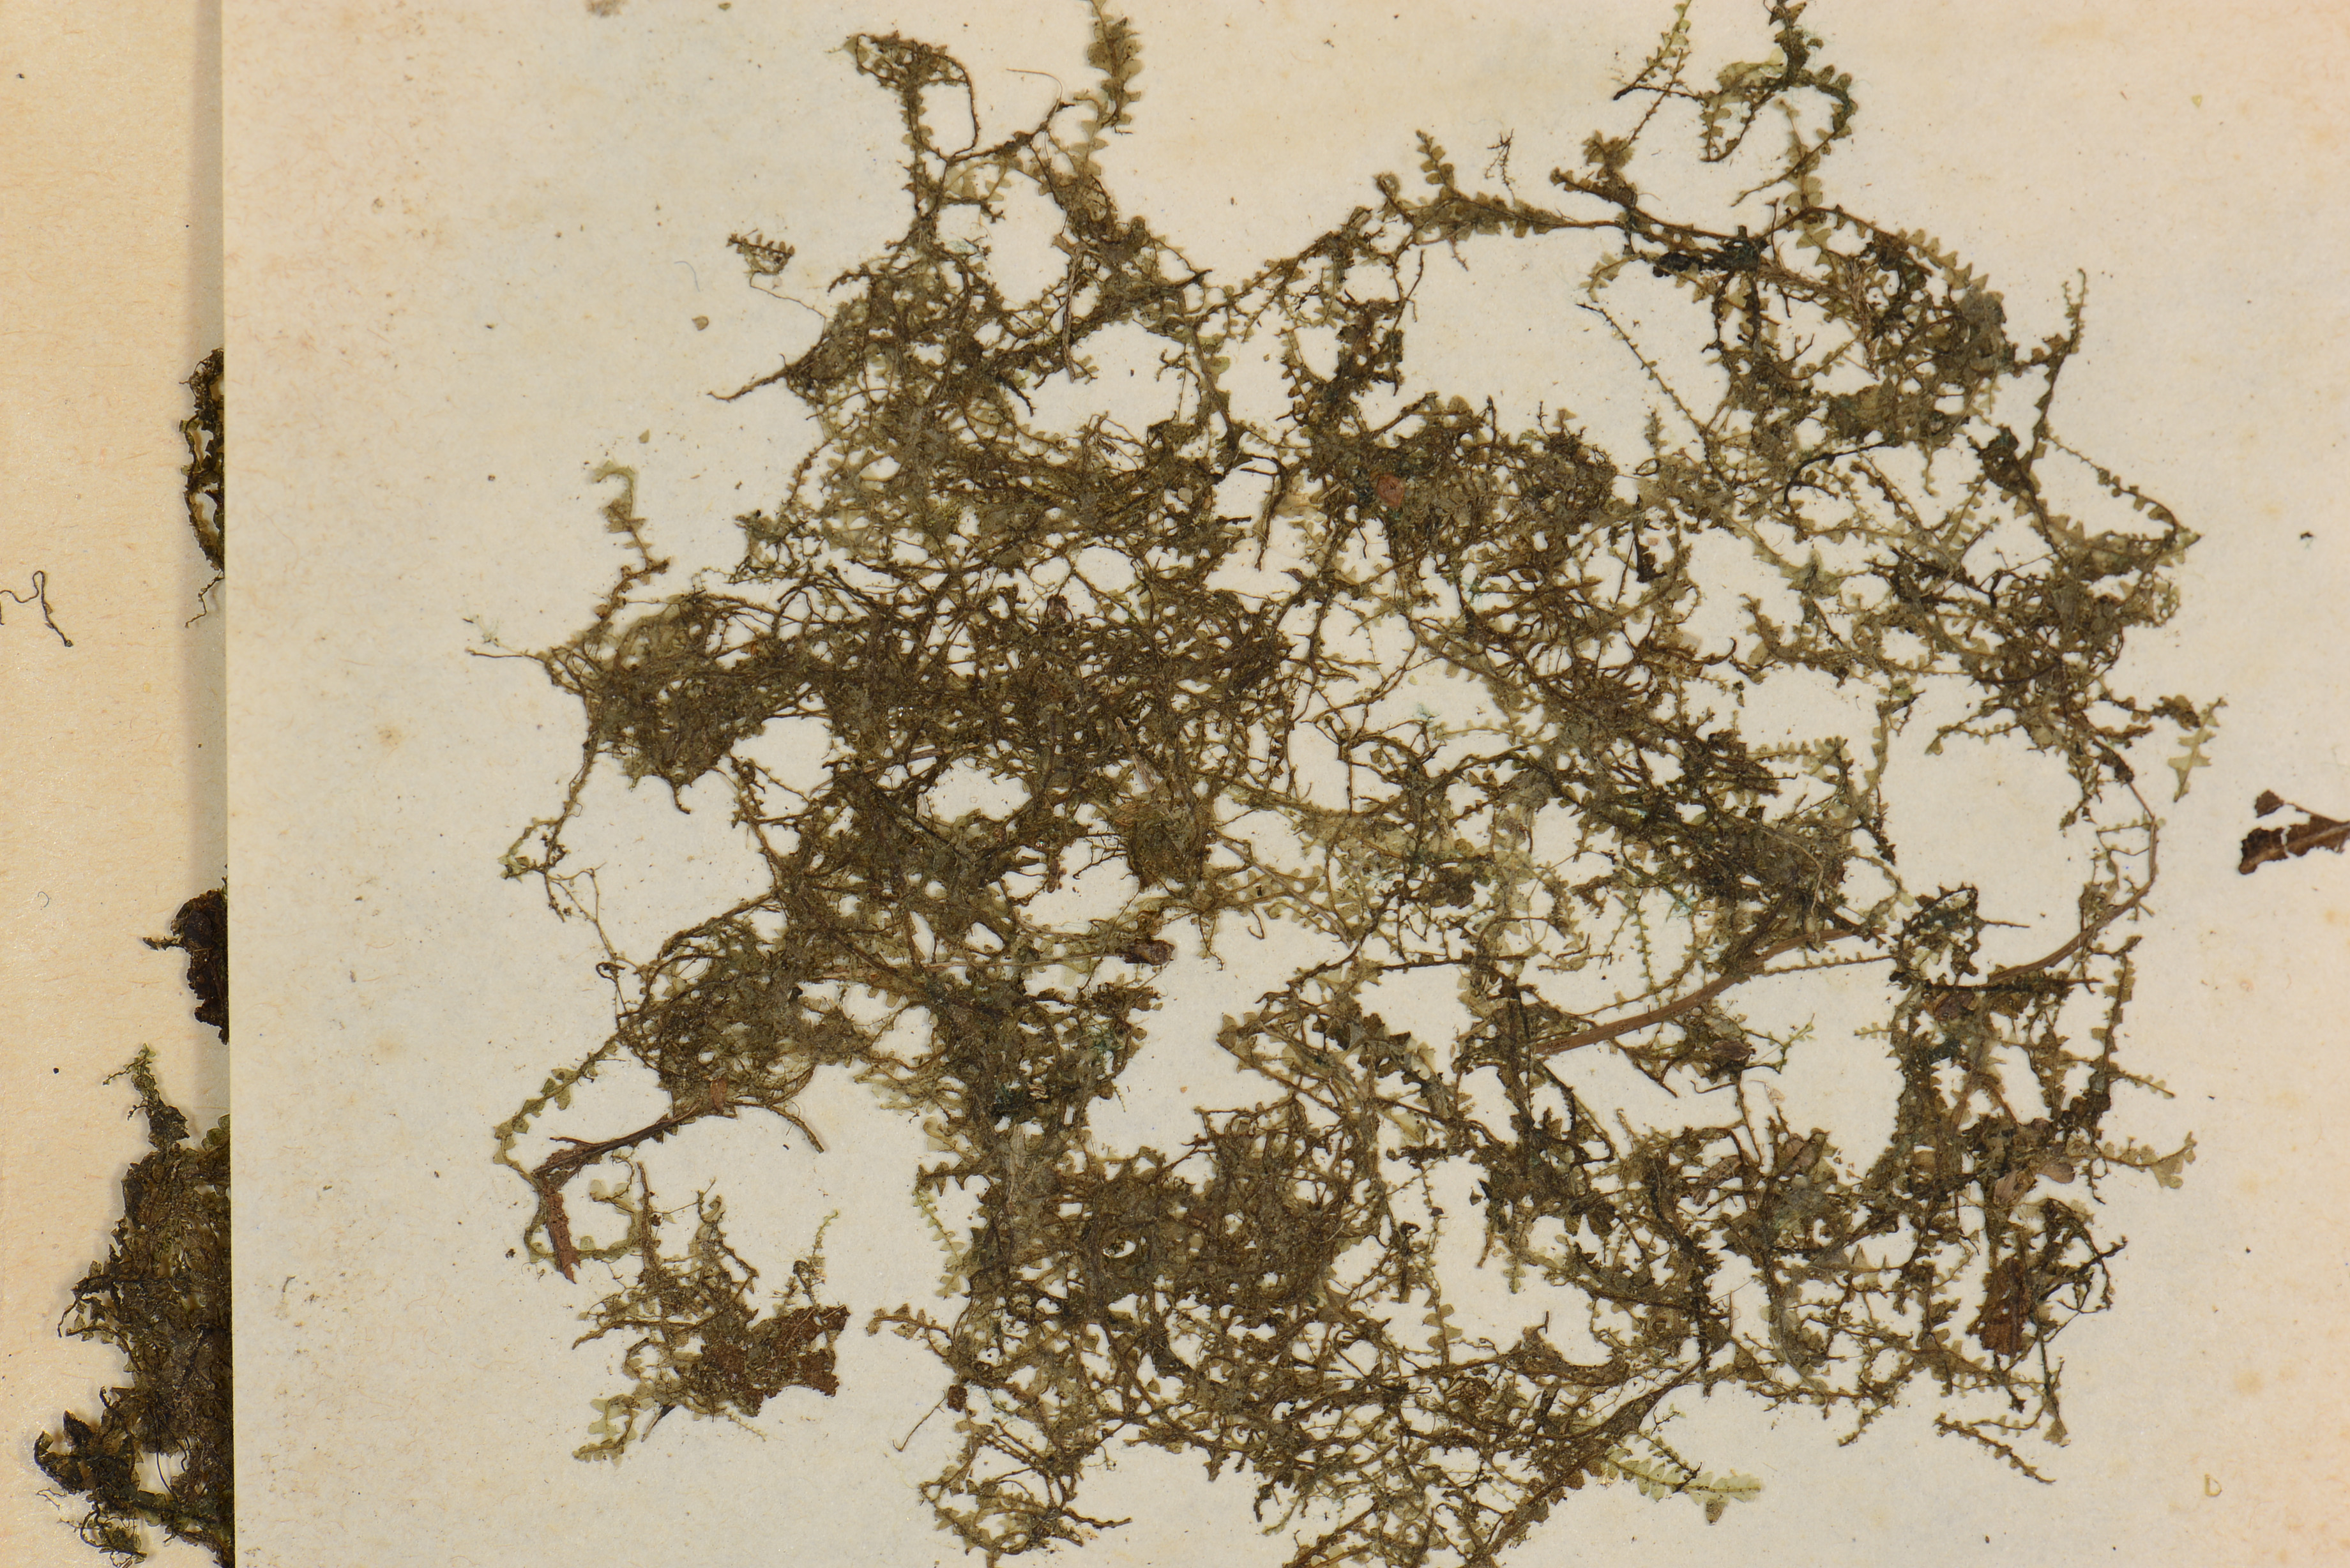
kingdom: Plantae
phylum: Marchantiophyta
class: Jungermanniopsida
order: Jungermanniales
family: Lophocoleaceae
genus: Chiloscyphus
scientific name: Chiloscyphus pallescens
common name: St winifrid's other moss
